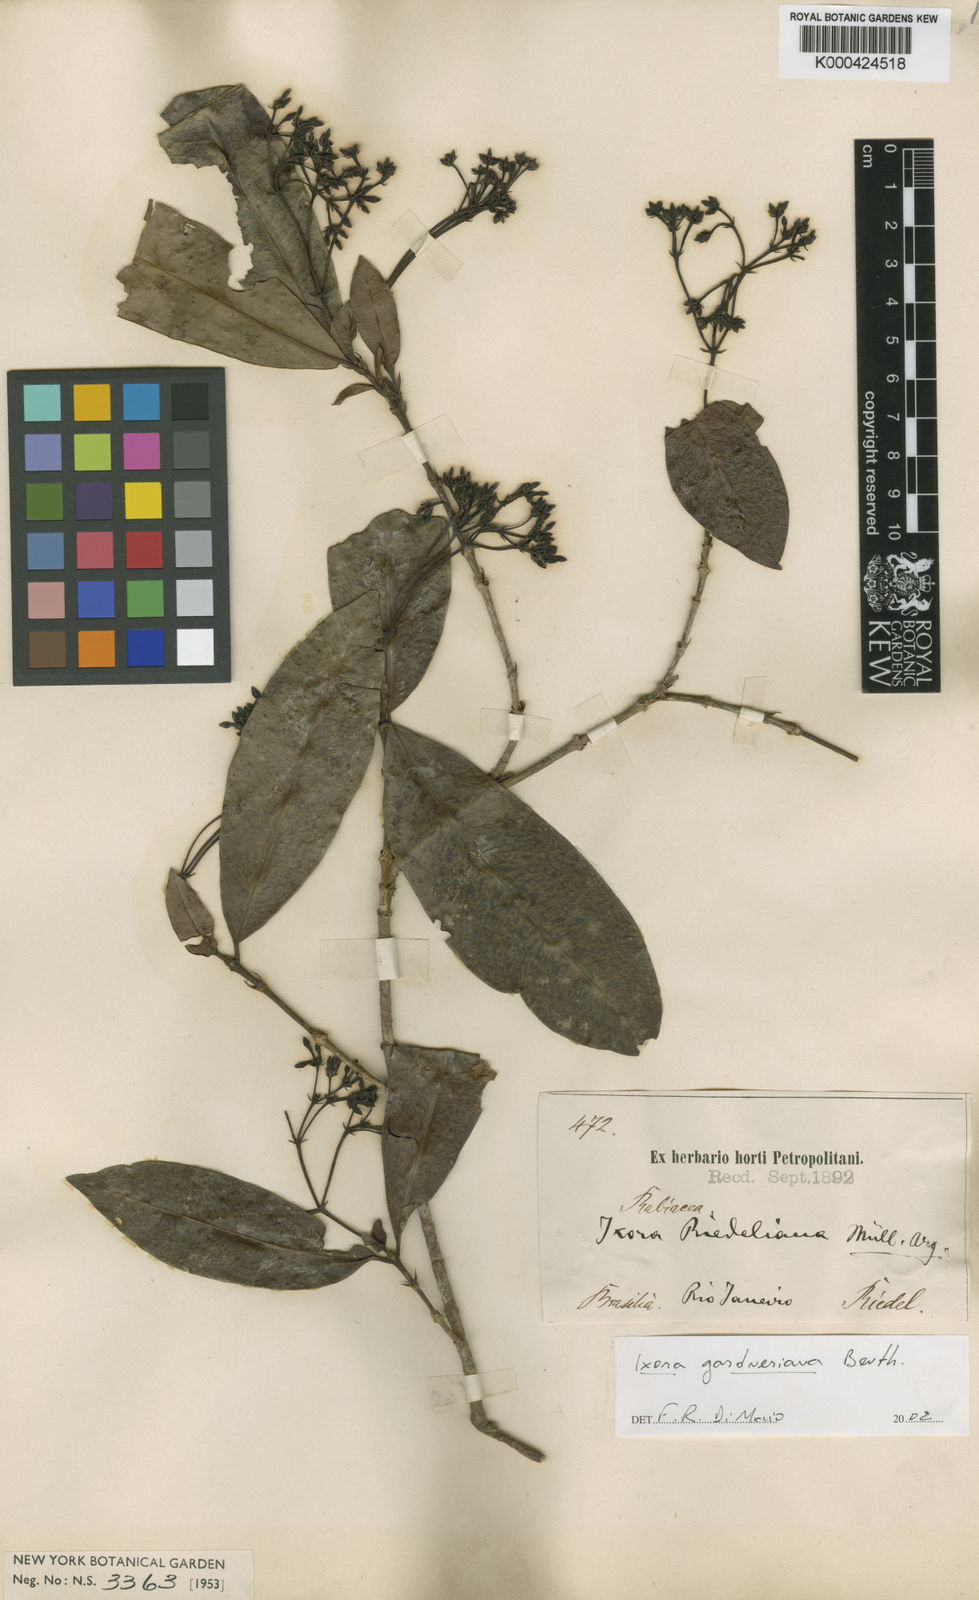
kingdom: Plantae
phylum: Tracheophyta
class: Magnoliopsida
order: Gentianales
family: Rubiaceae
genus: Ixora
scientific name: Ixora gardneriana
